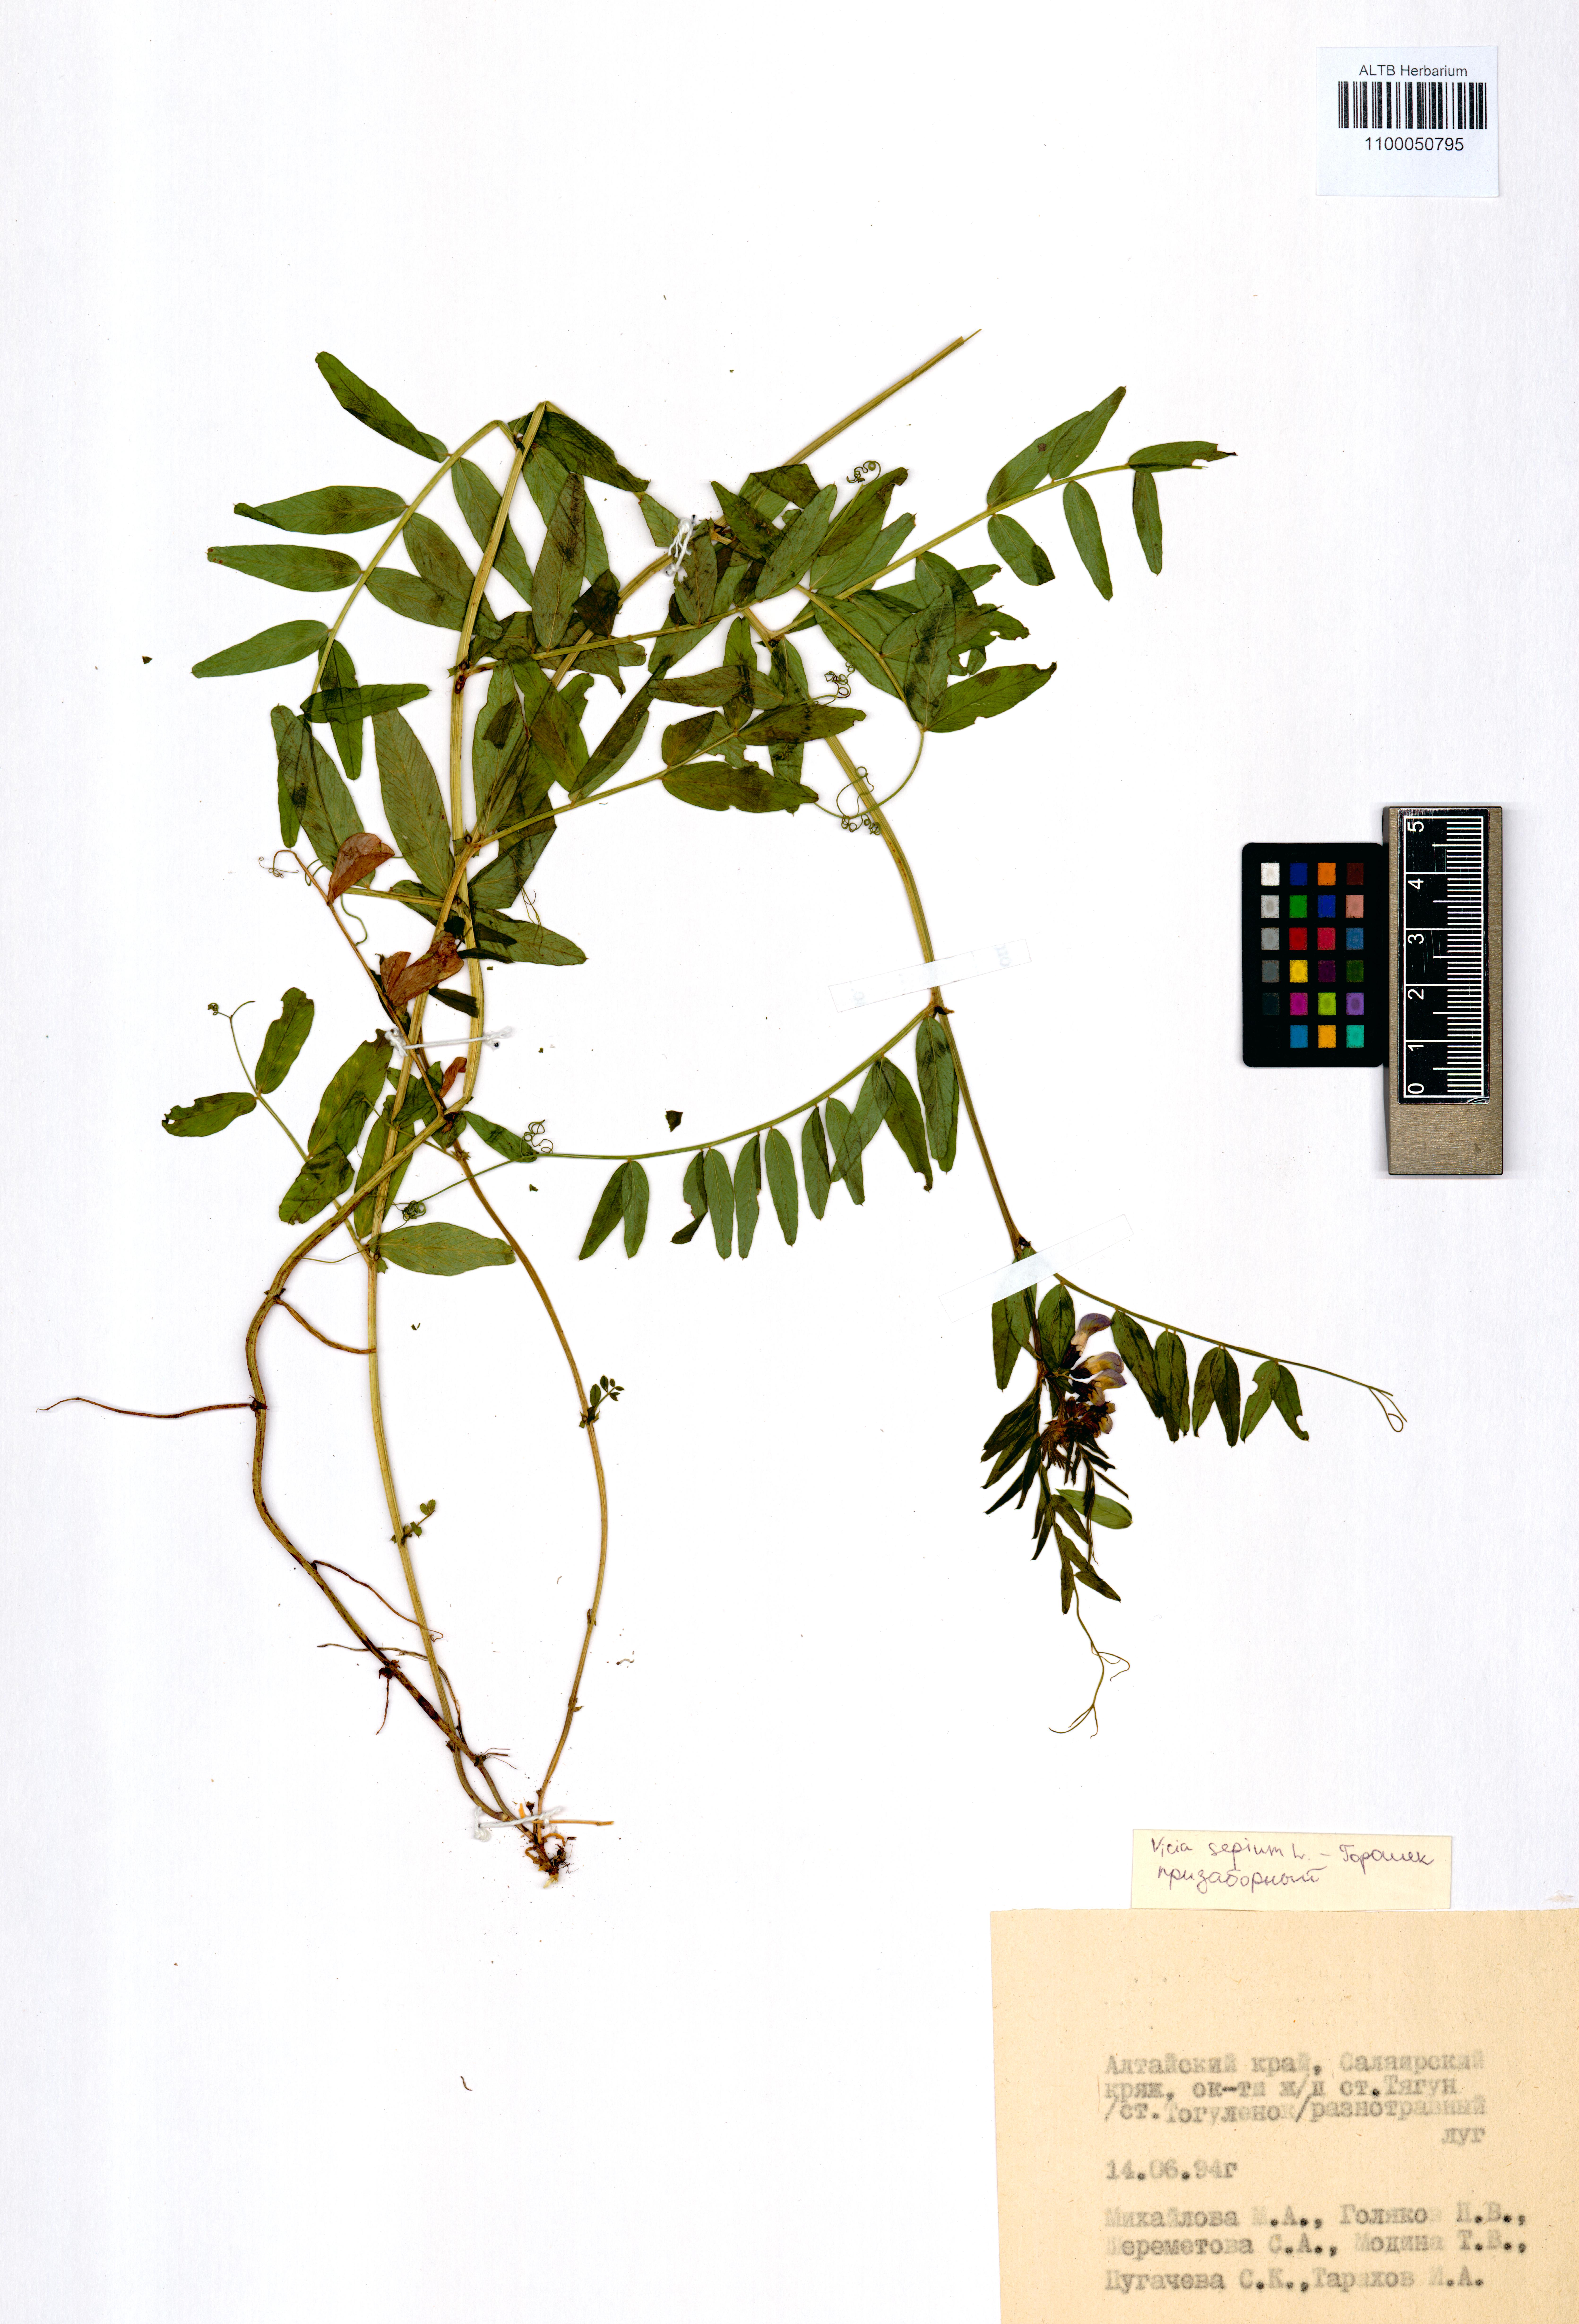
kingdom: Plantae
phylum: Tracheophyta
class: Magnoliopsida
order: Fabales
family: Fabaceae
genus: Vicia
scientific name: Vicia sepium
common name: Bush vetch
